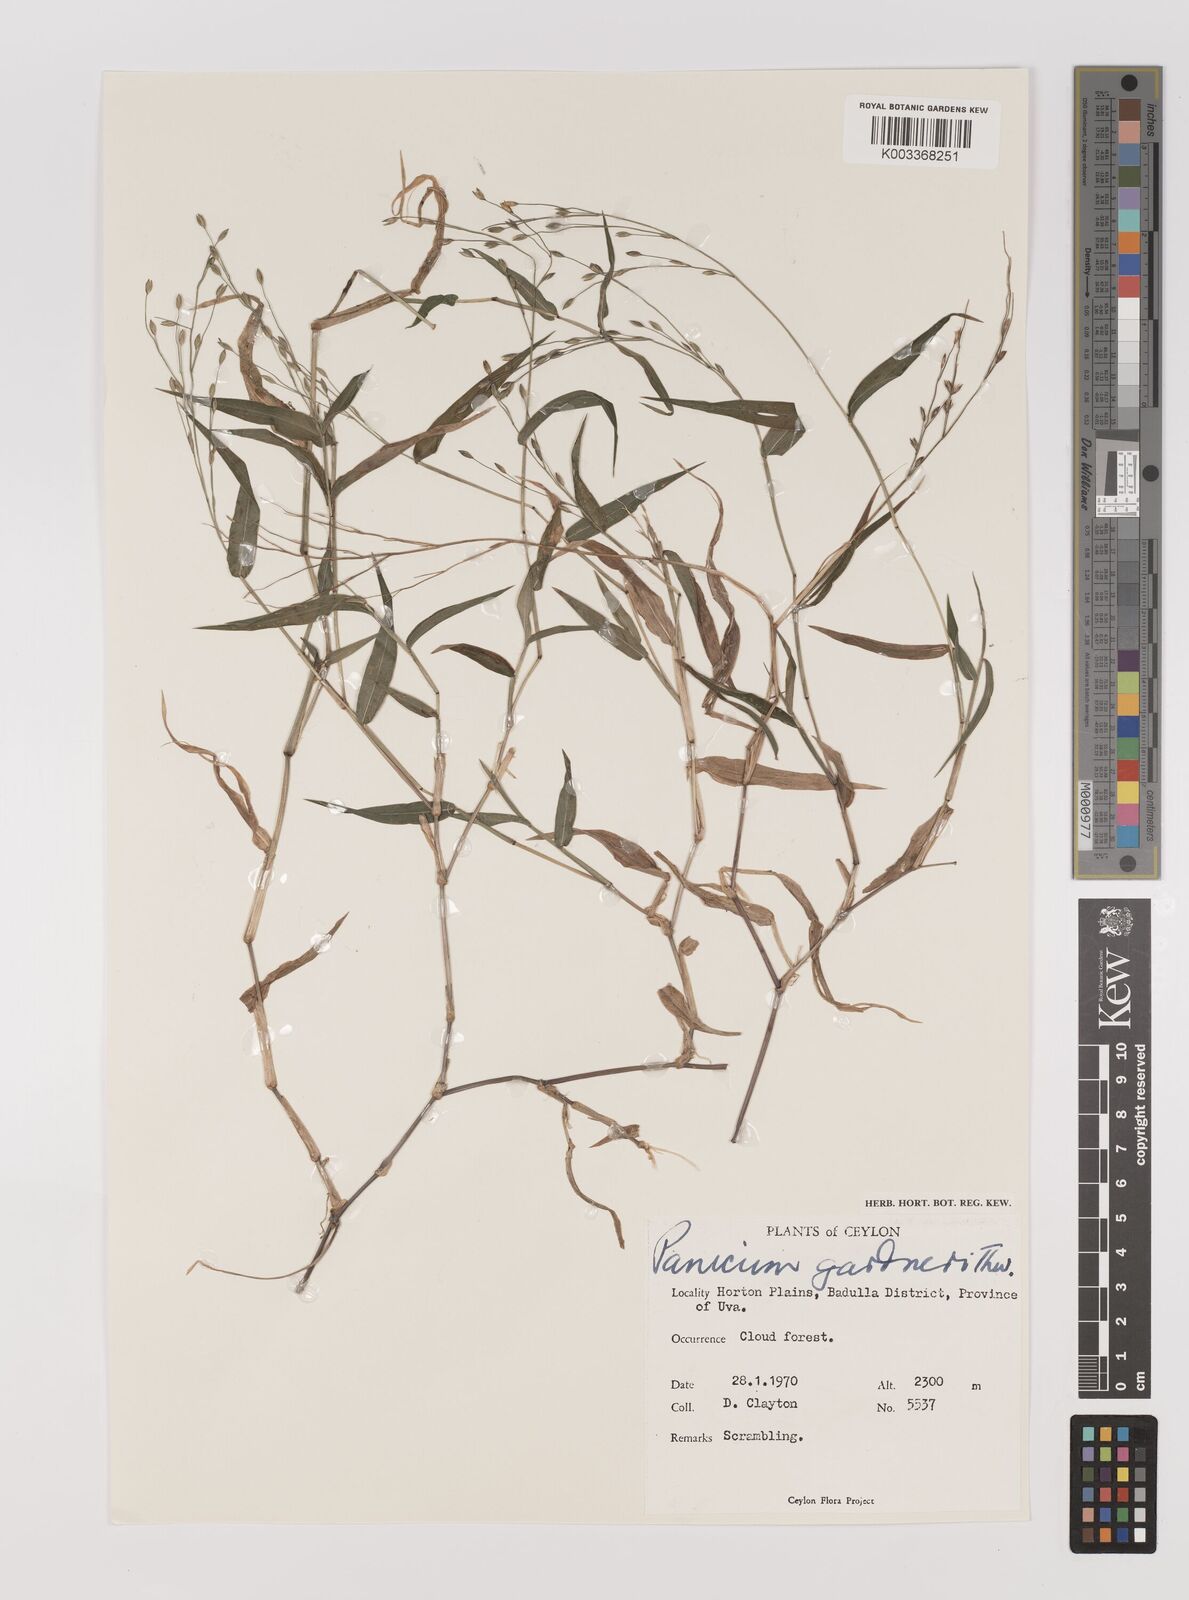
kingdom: Plantae
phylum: Tracheophyta
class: Liliopsida
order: Poales
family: Poaceae
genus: Panicum
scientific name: Panicum gardneri
